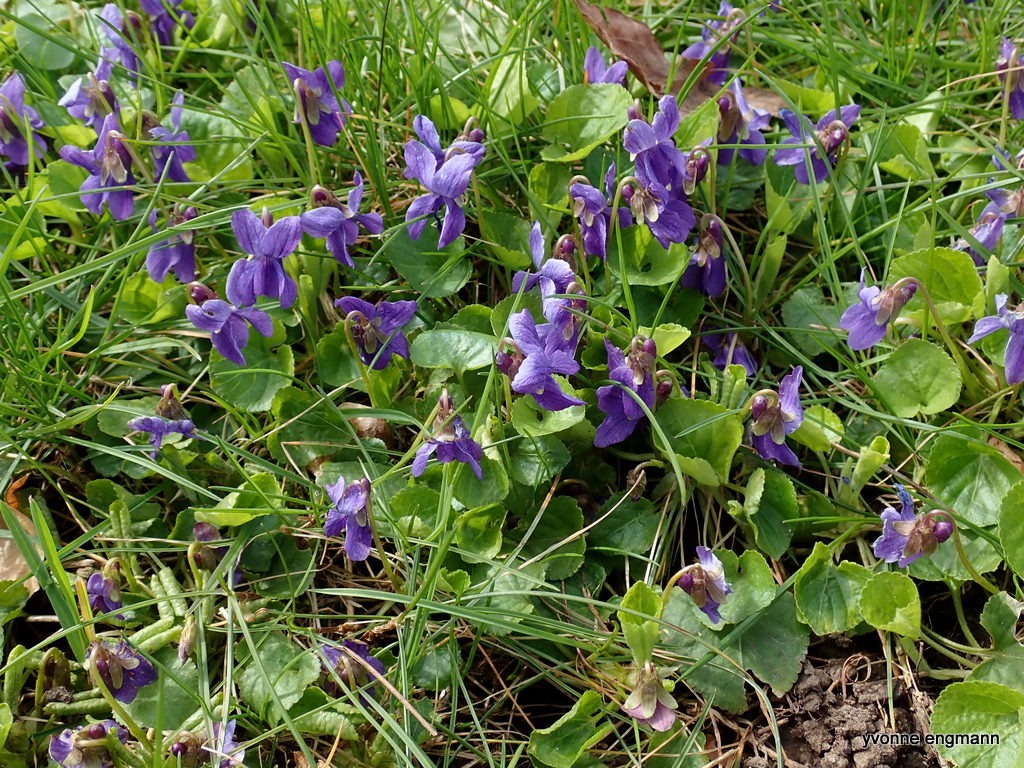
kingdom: Plantae
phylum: Tracheophyta
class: Magnoliopsida
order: Malpighiales
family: Violaceae
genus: Viola
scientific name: Viola odorata
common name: Marts-viol
